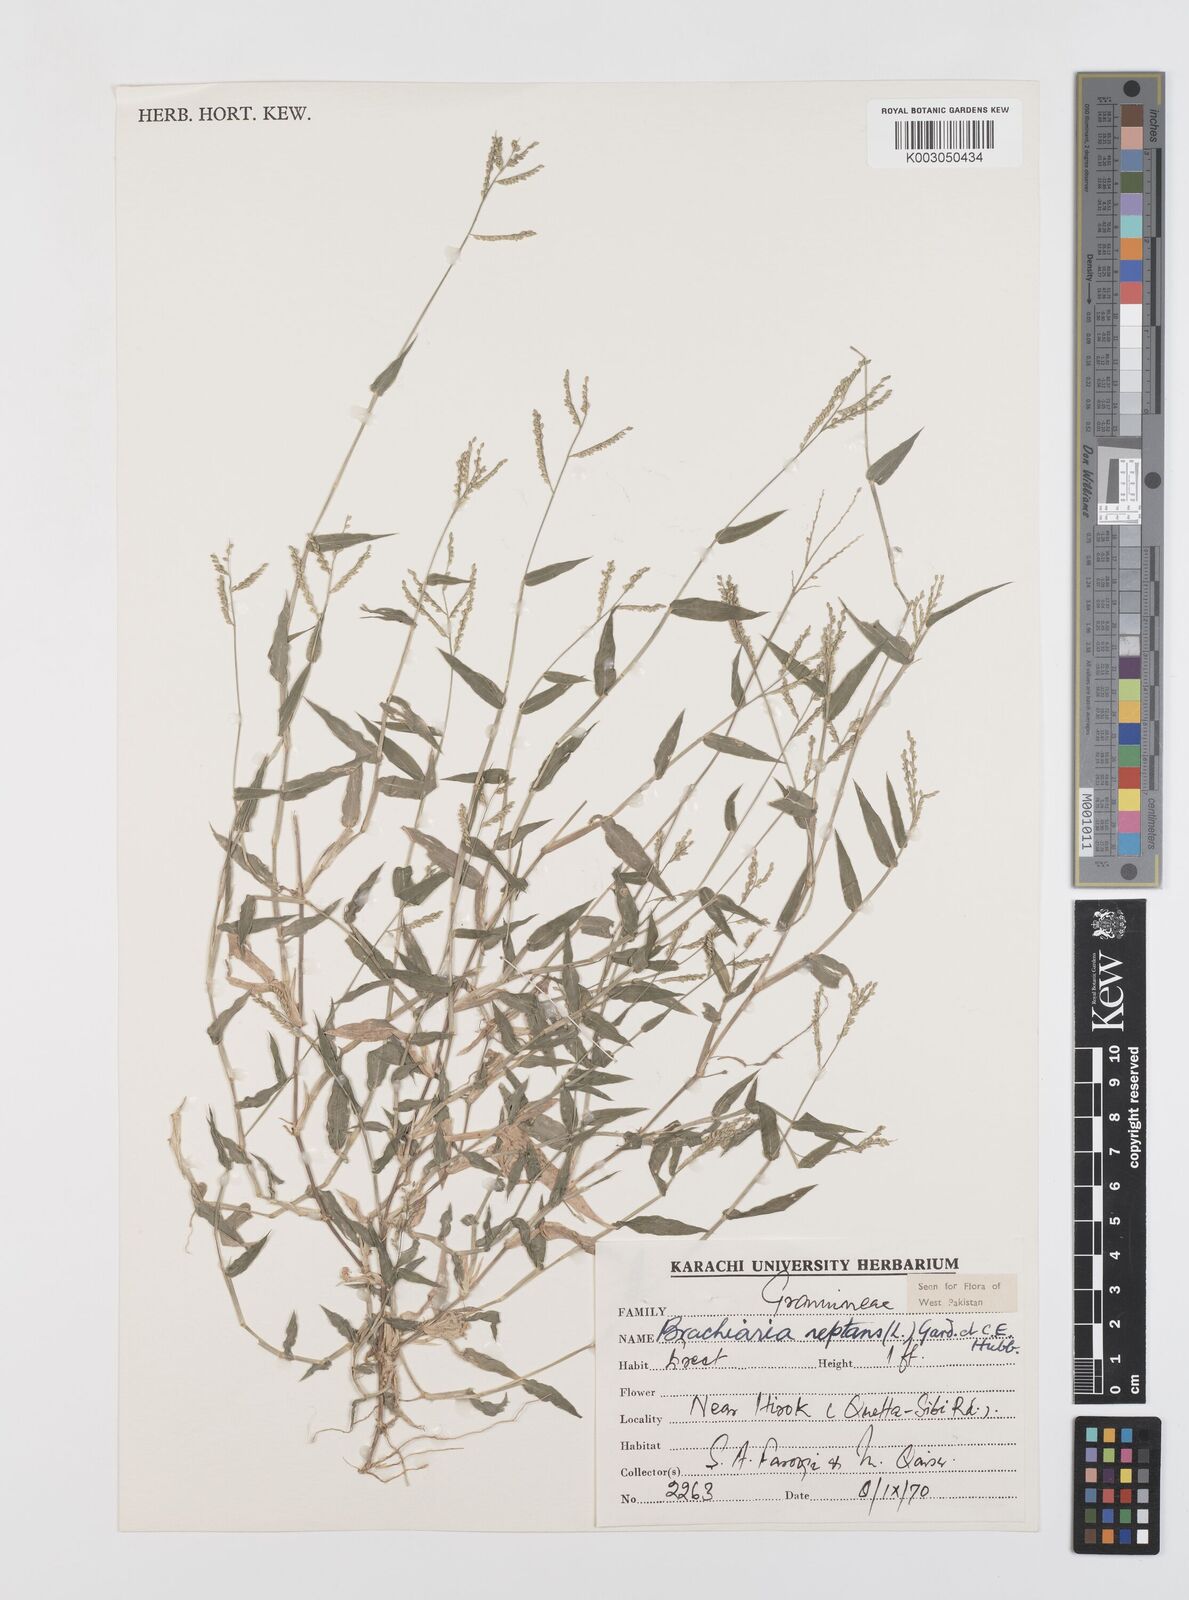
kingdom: Plantae
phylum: Tracheophyta
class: Liliopsida
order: Poales
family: Poaceae
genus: Urochloa
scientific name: Urochloa reptans
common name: Sprawling signalgrass
